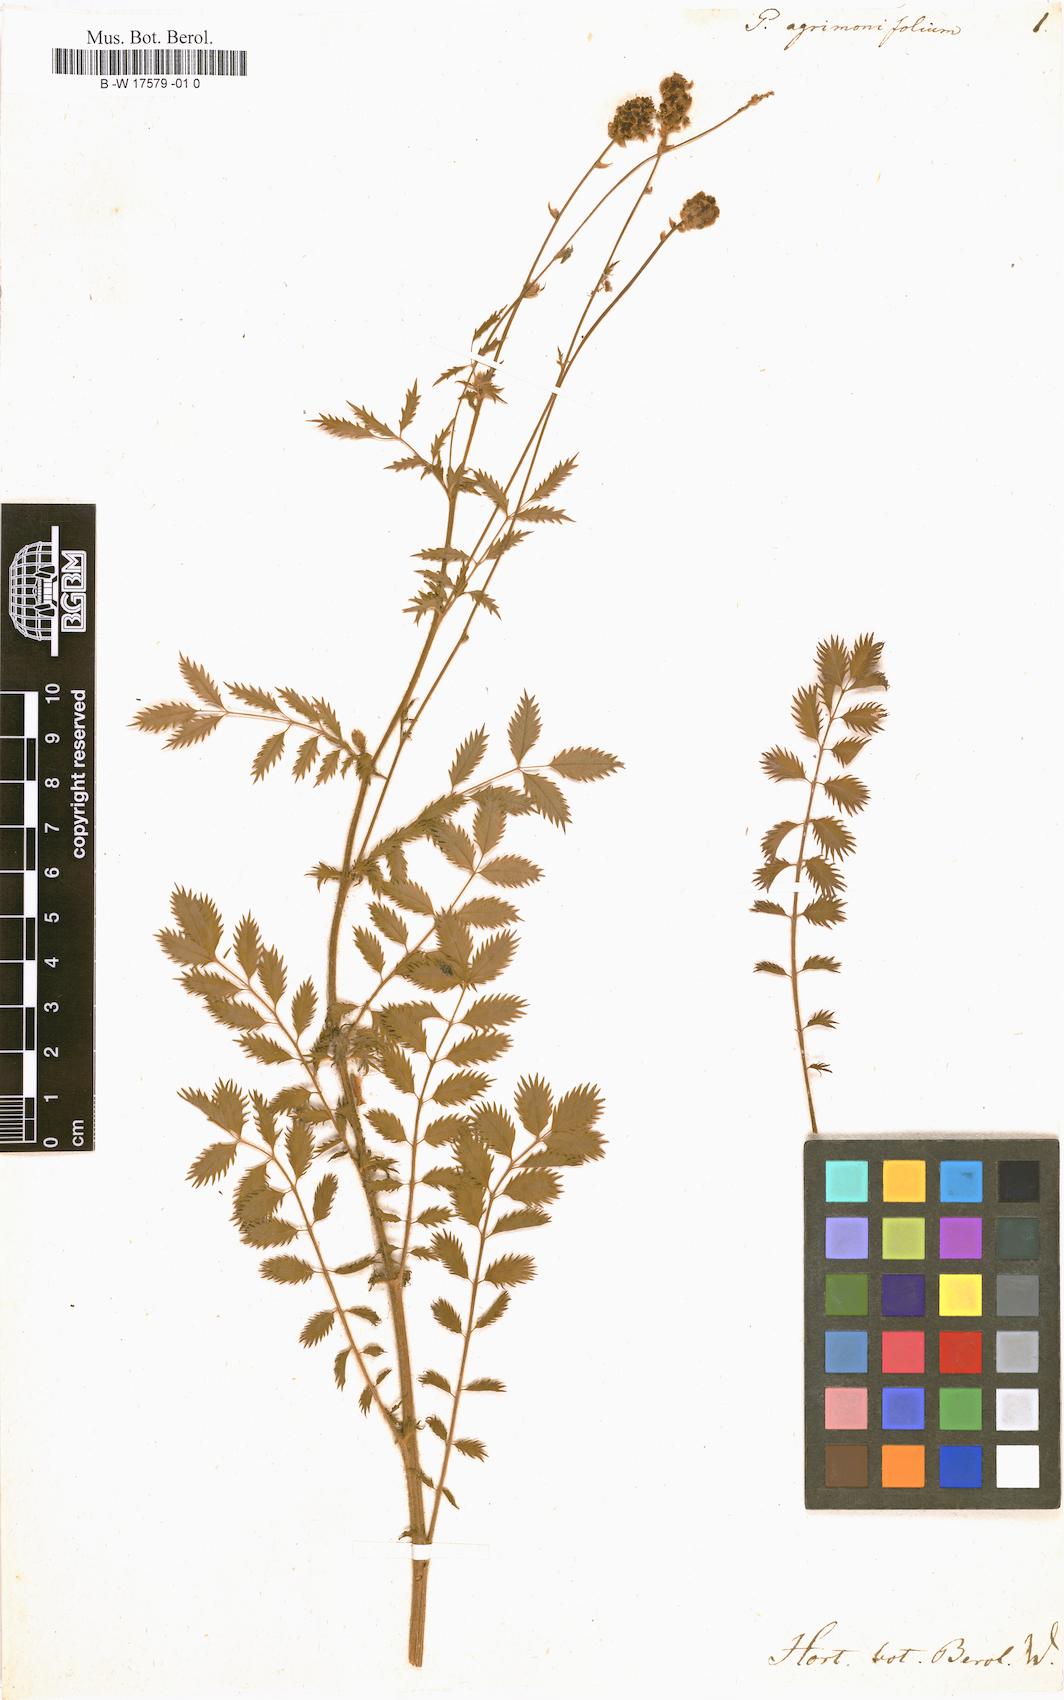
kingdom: Plantae
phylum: Tracheophyta
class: Magnoliopsida
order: Rosales
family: Rosaceae
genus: Poterium
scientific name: Poterium hybridum
